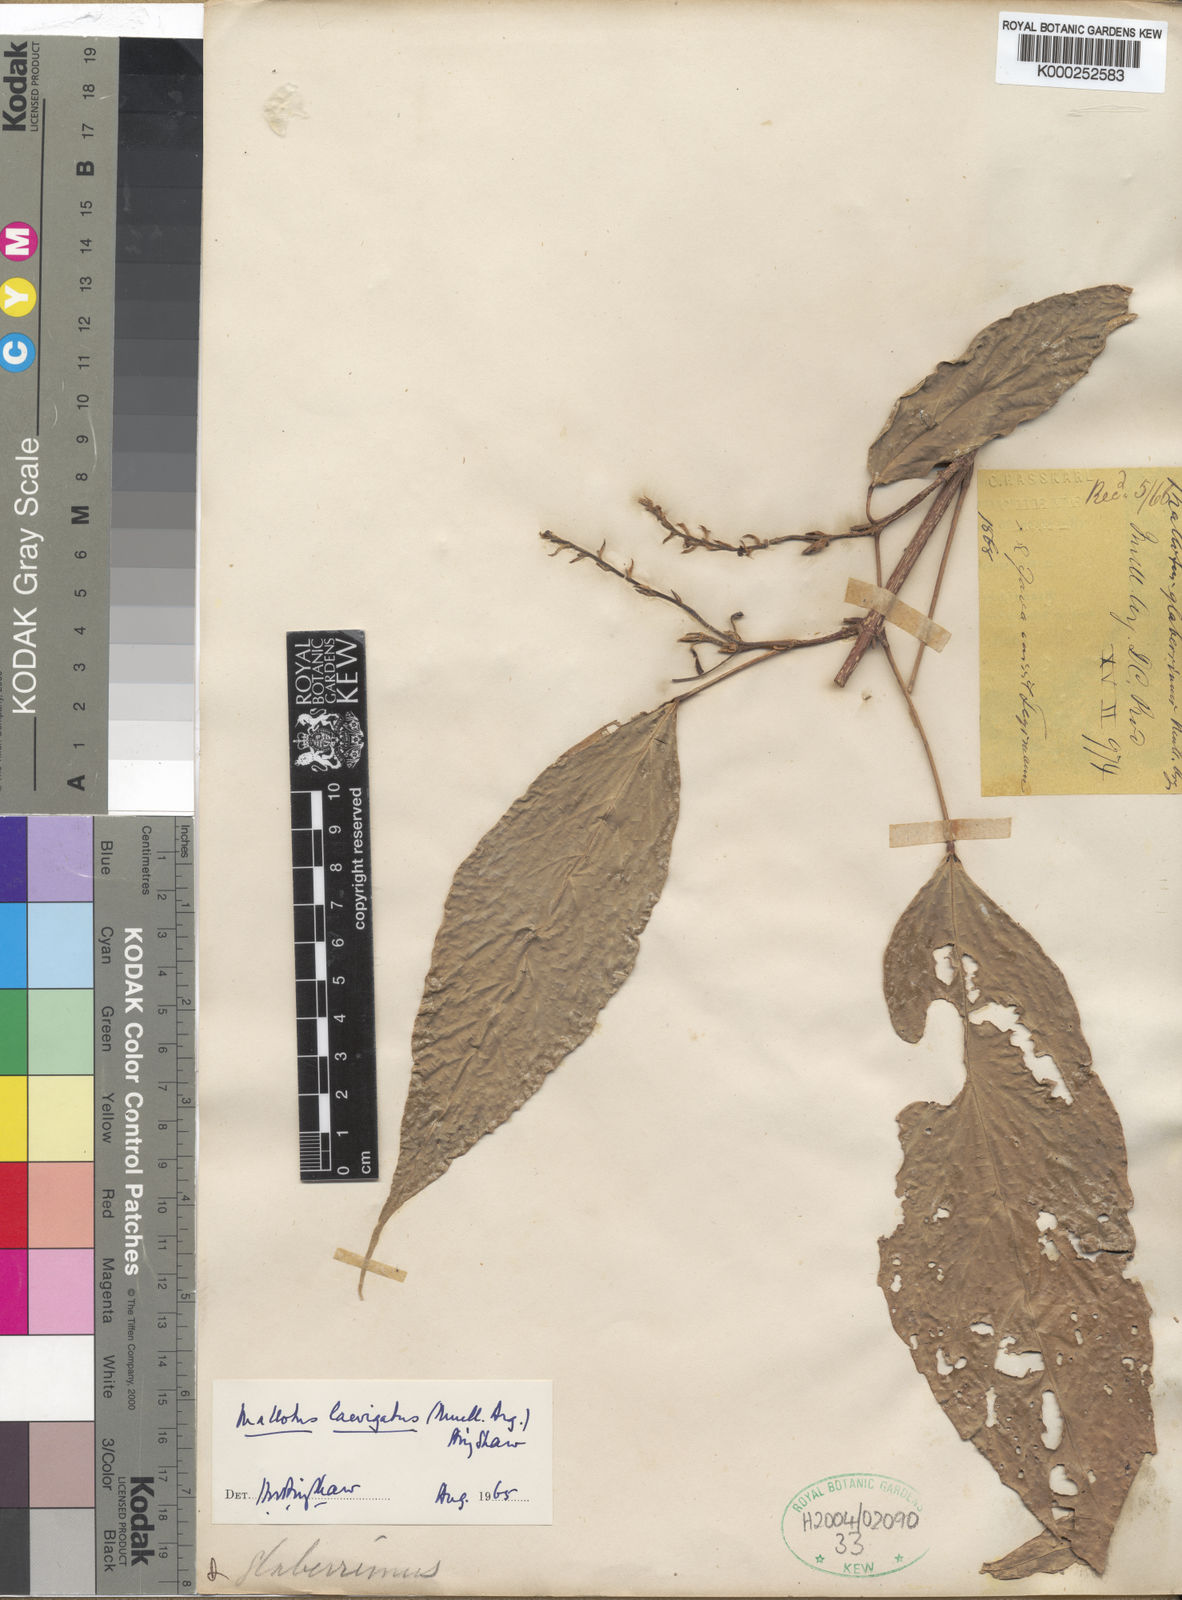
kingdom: Plantae
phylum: Tracheophyta
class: Magnoliopsida
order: Malpighiales
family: Euphorbiaceae
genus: Mallotus
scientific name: Mallotus lancifolius
